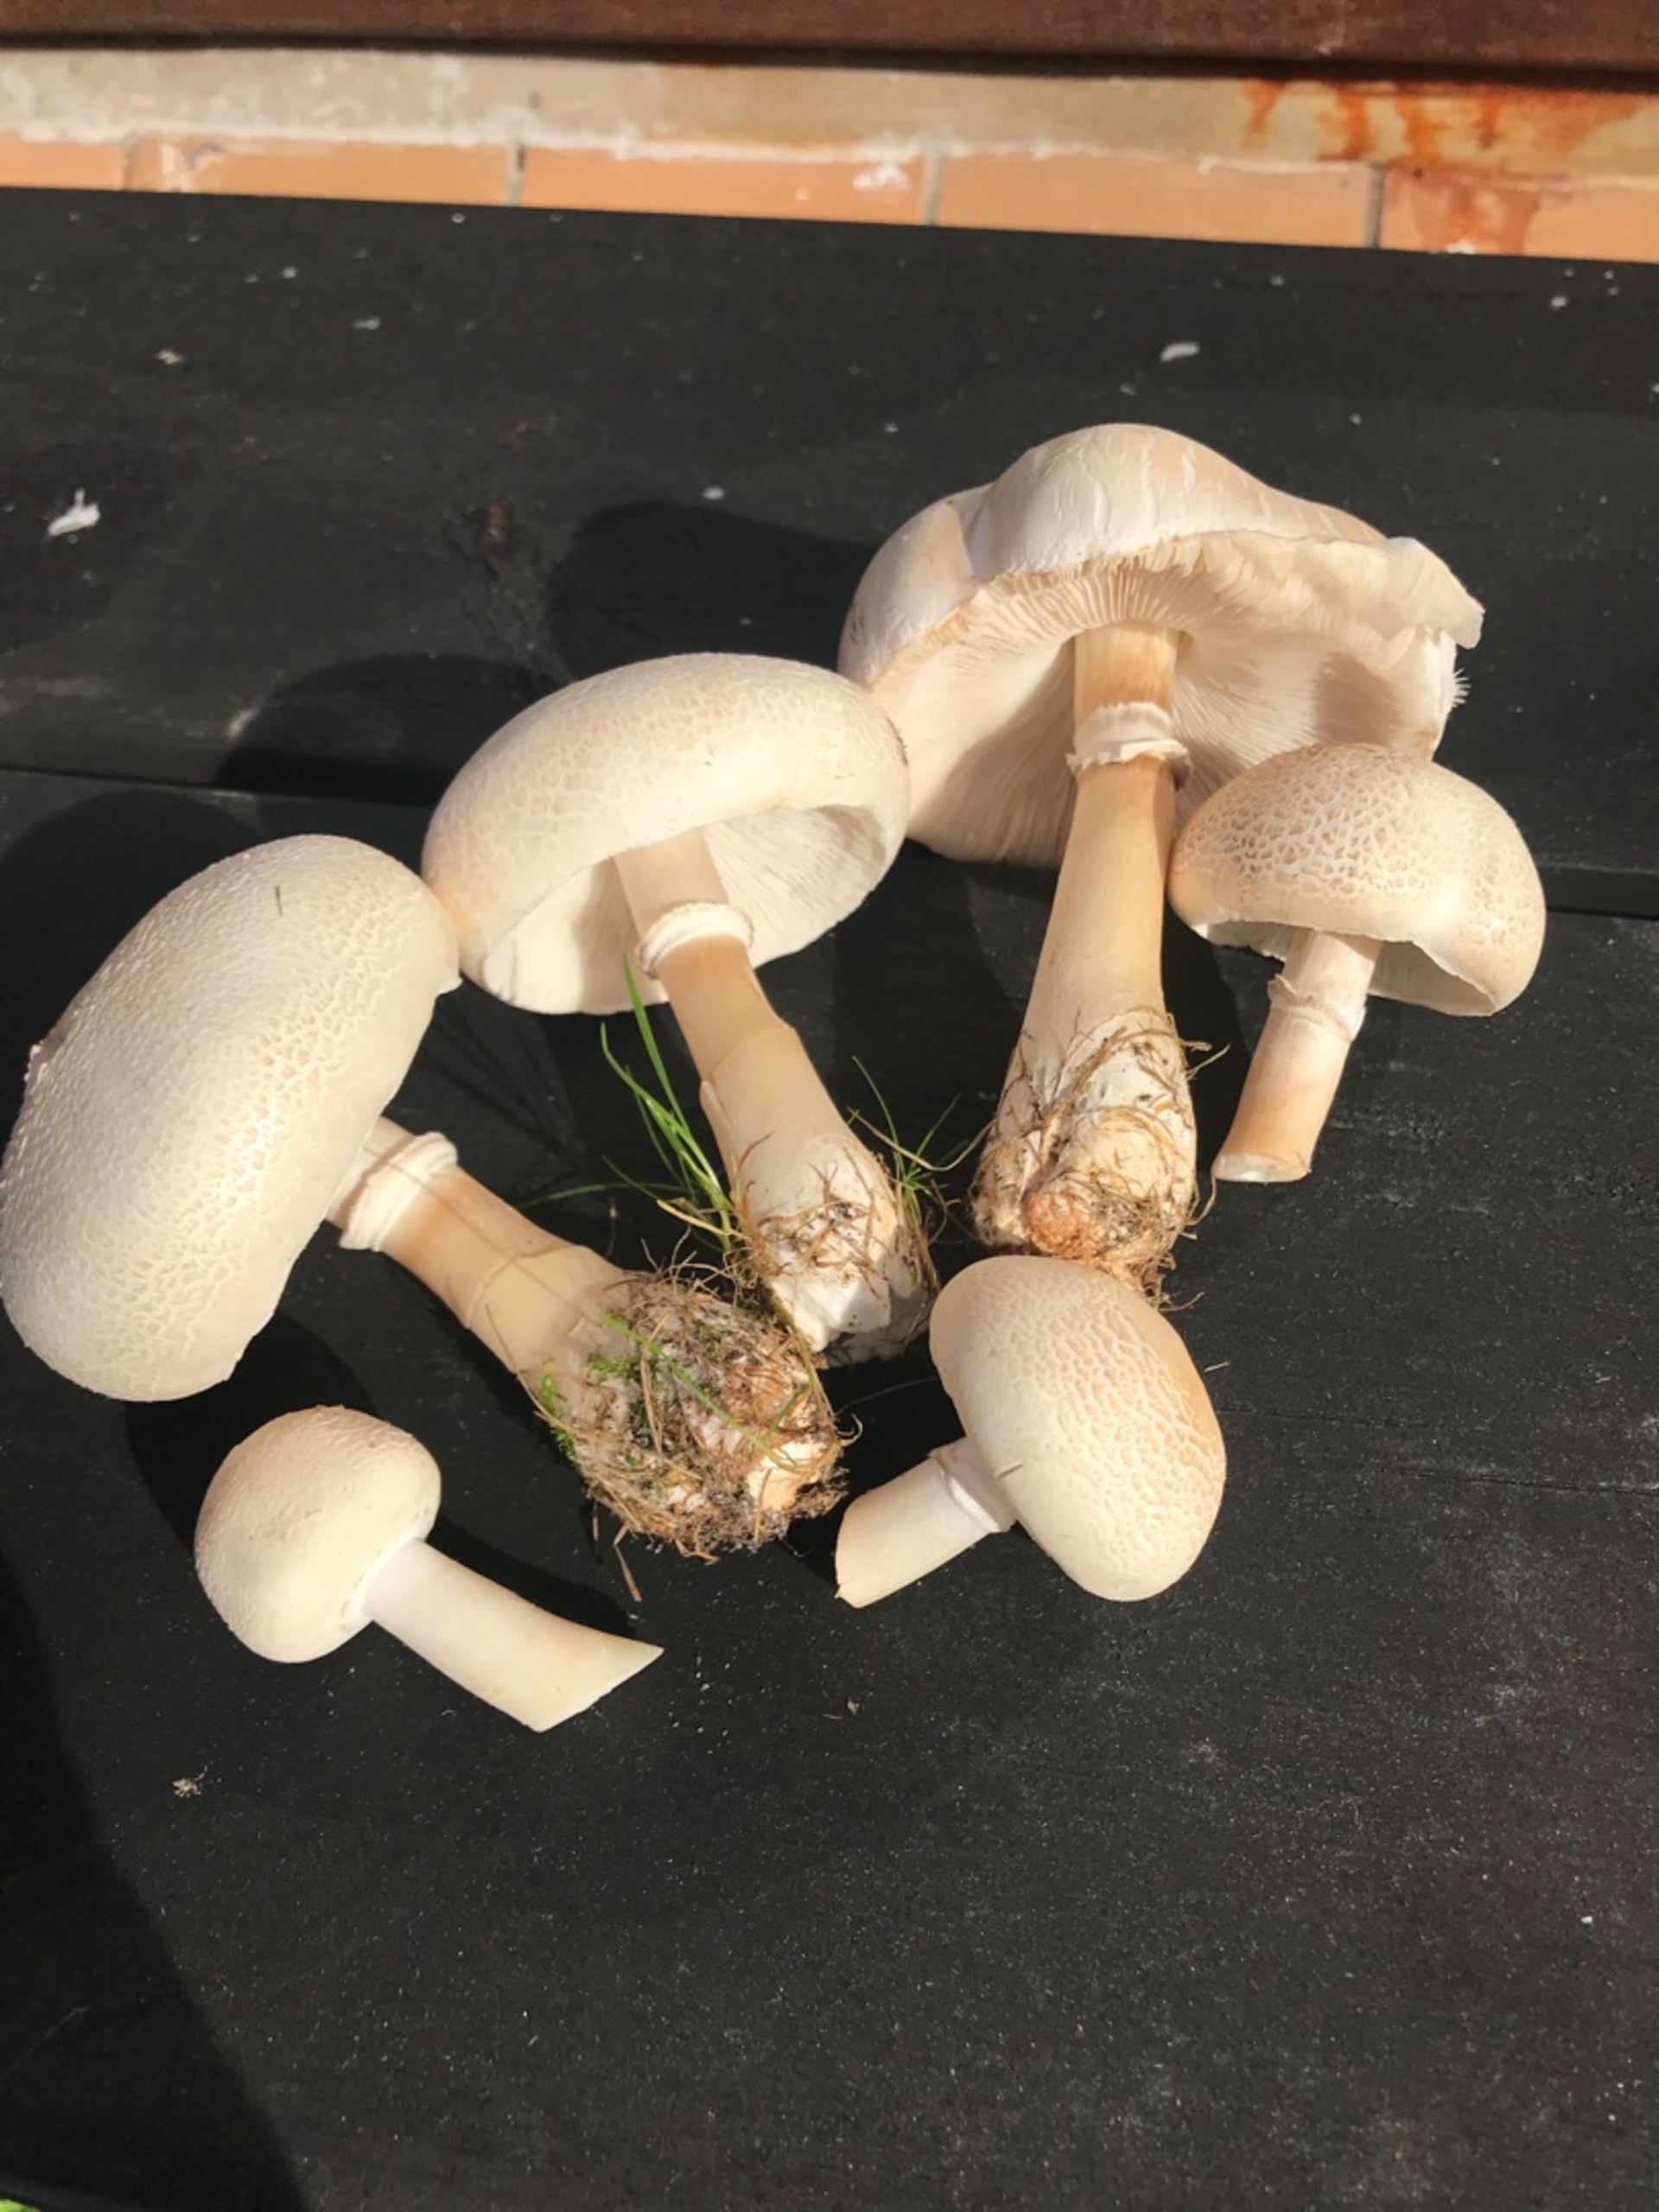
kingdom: Fungi
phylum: Basidiomycota
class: Agaricomycetes
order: Agaricales
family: Agaricaceae
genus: Leucoagaricus
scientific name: Leucoagaricus leucothites
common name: Rosabladet silkehat
